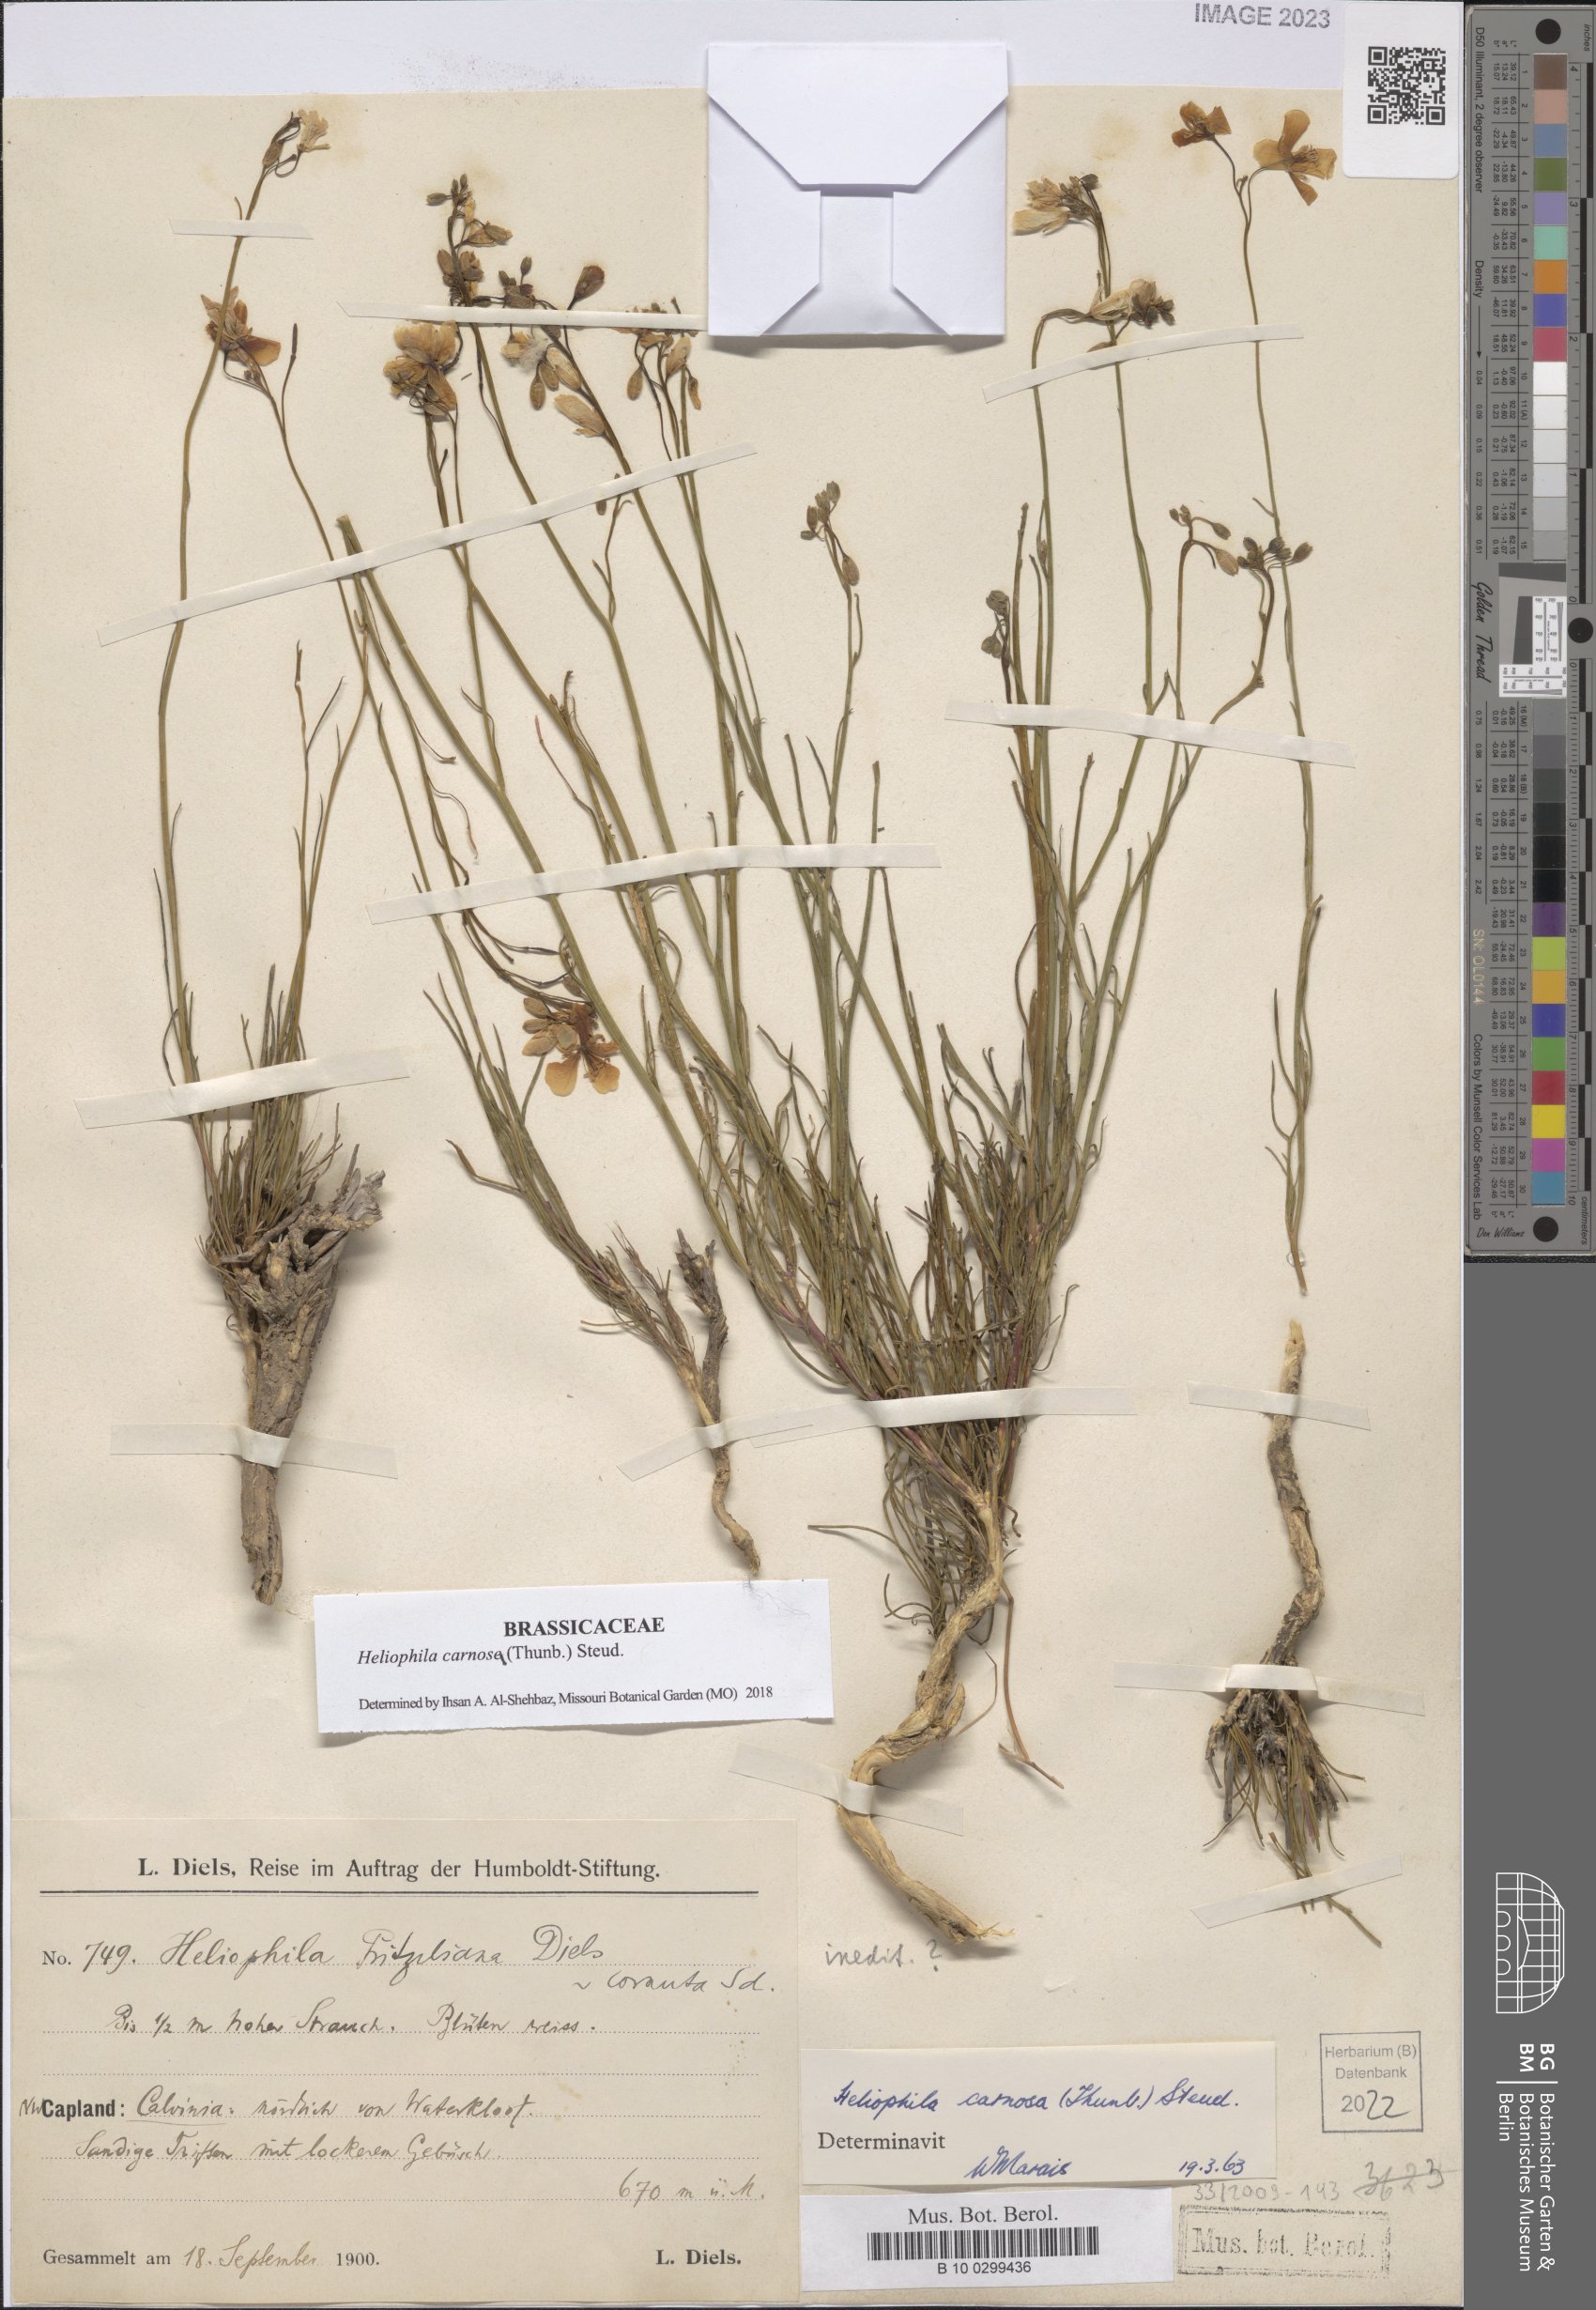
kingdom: Plantae
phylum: Tracheophyta
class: Magnoliopsida
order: Brassicales
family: Brassicaceae
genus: Heliophila
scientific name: Heliophila carnosa
